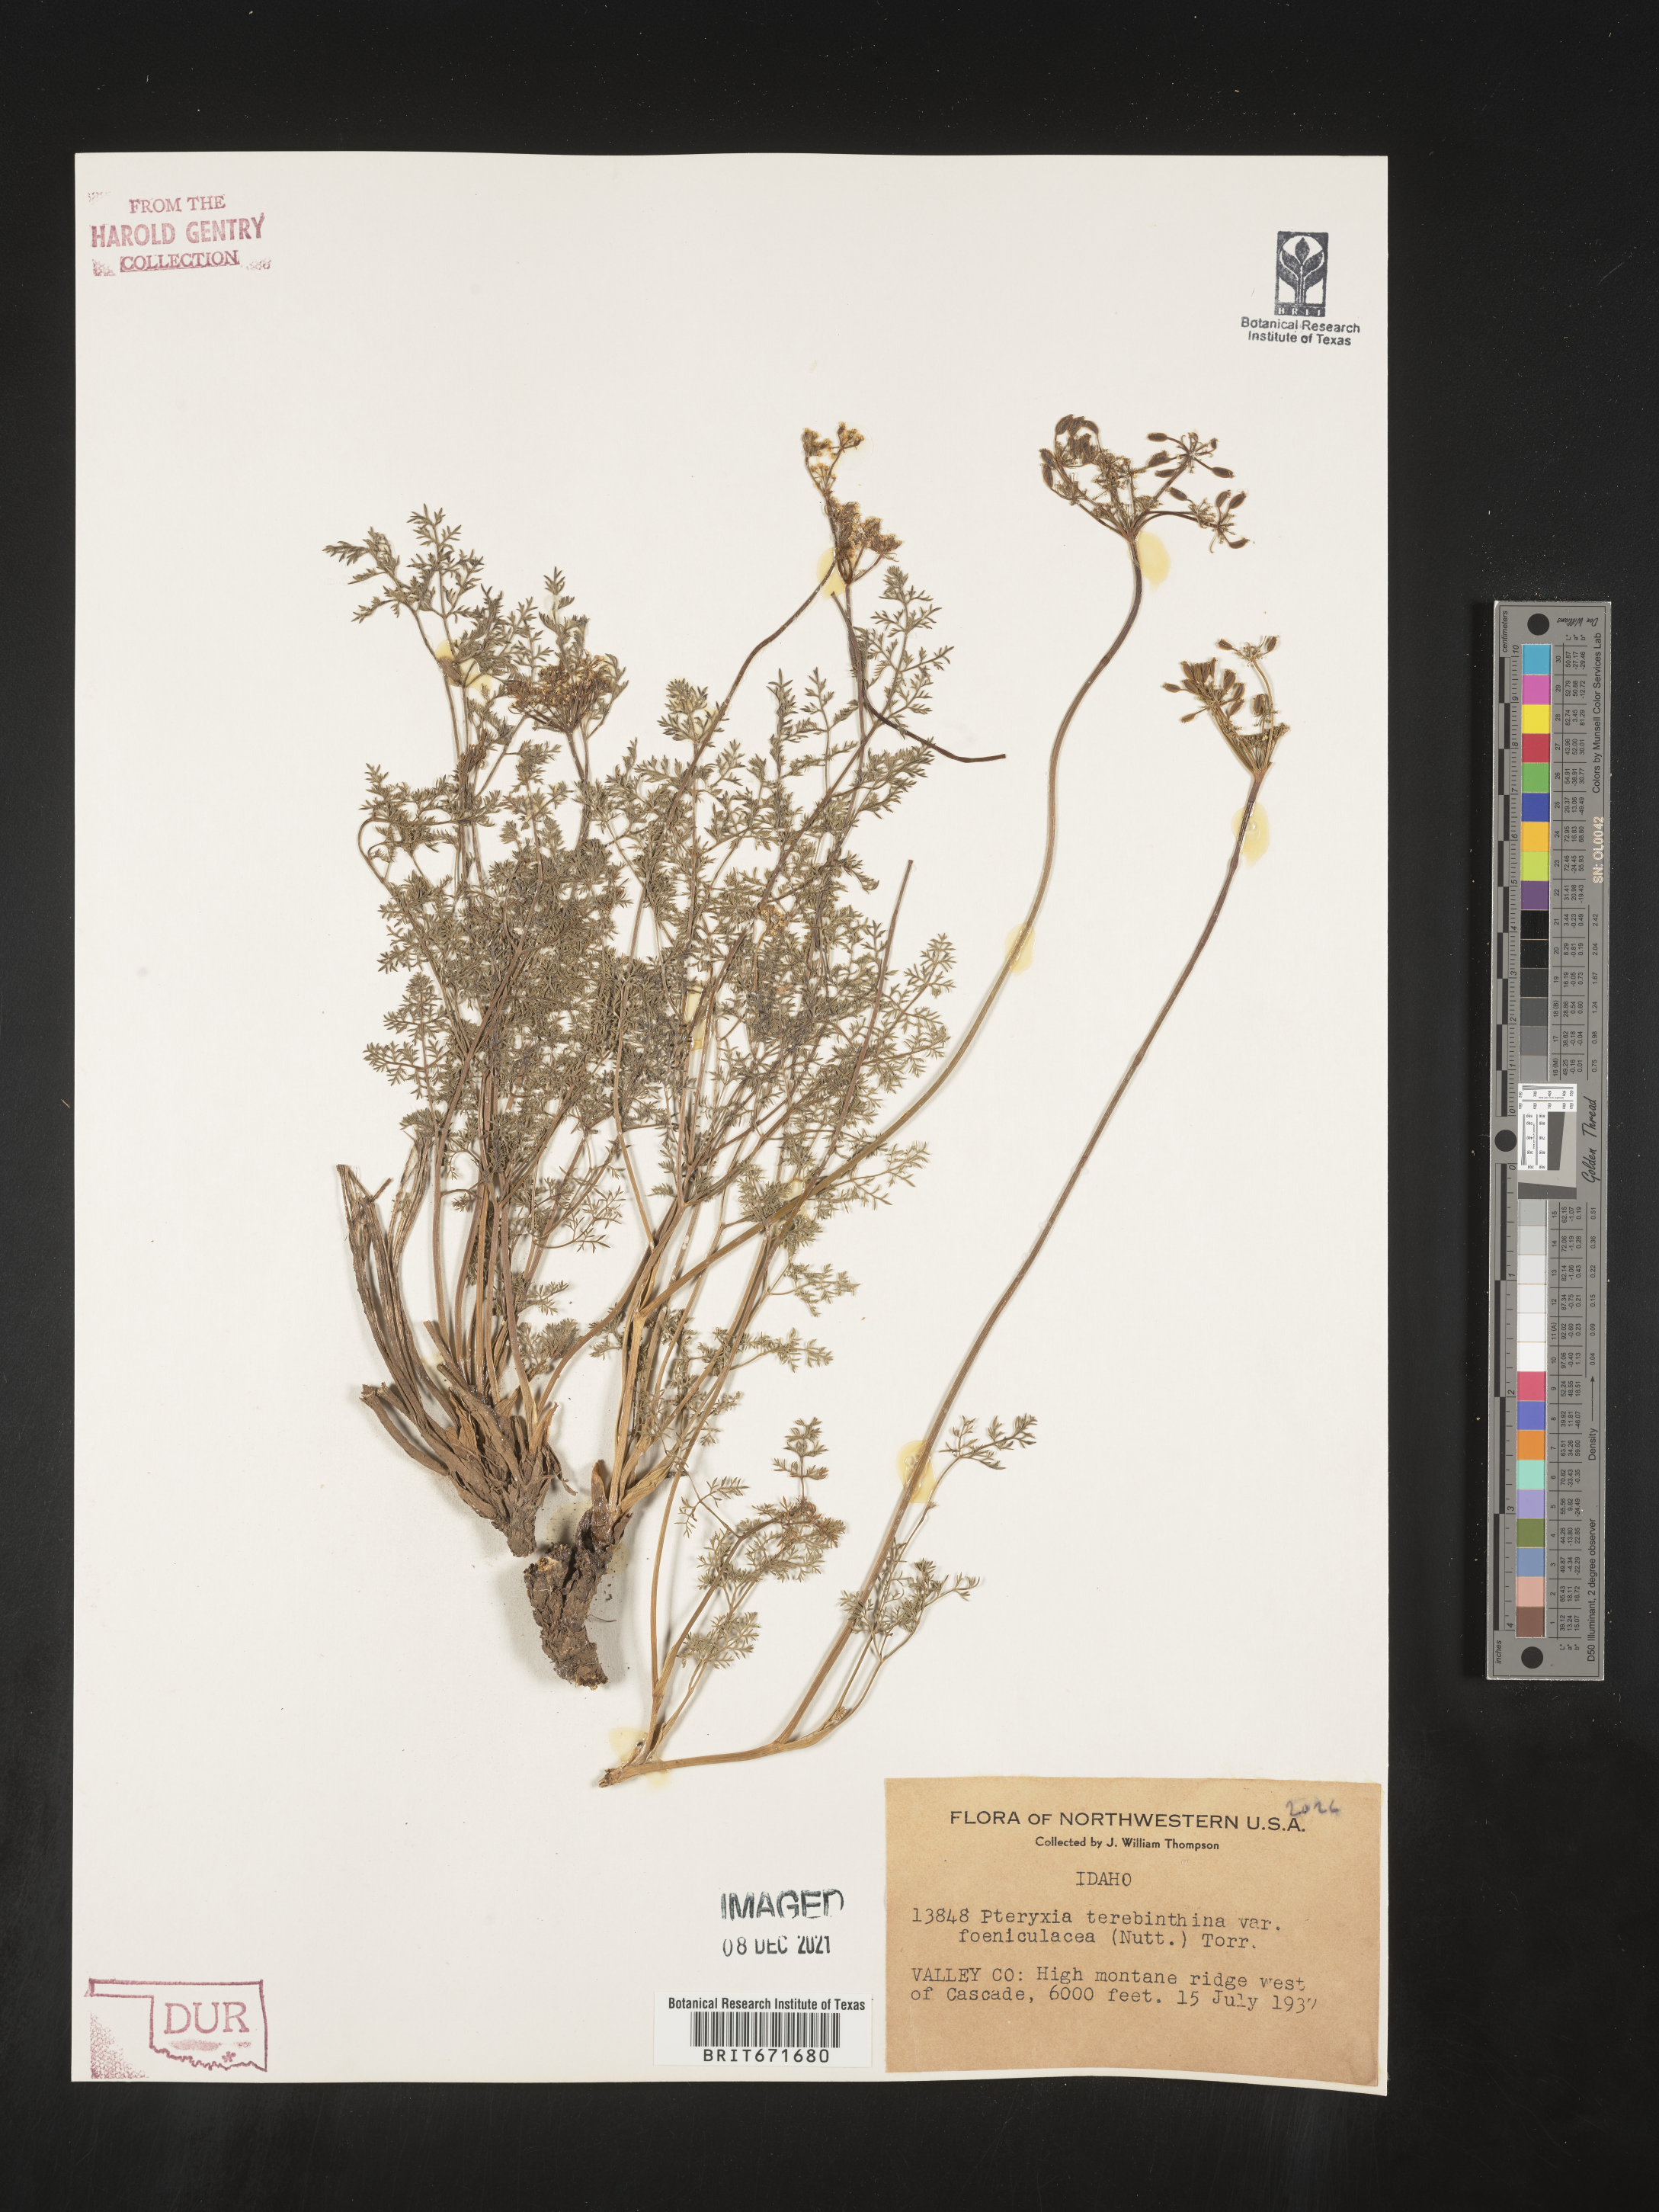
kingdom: Plantae
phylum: Tracheophyta
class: Magnoliopsida
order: Apiales
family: Apiaceae
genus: Pteryxia
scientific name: Pteryxia terebinthina
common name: Turpentine wavewing
